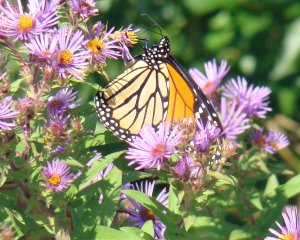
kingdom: Animalia
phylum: Arthropoda
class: Insecta
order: Lepidoptera
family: Nymphalidae
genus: Danaus
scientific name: Danaus plexippus
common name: Monarch
